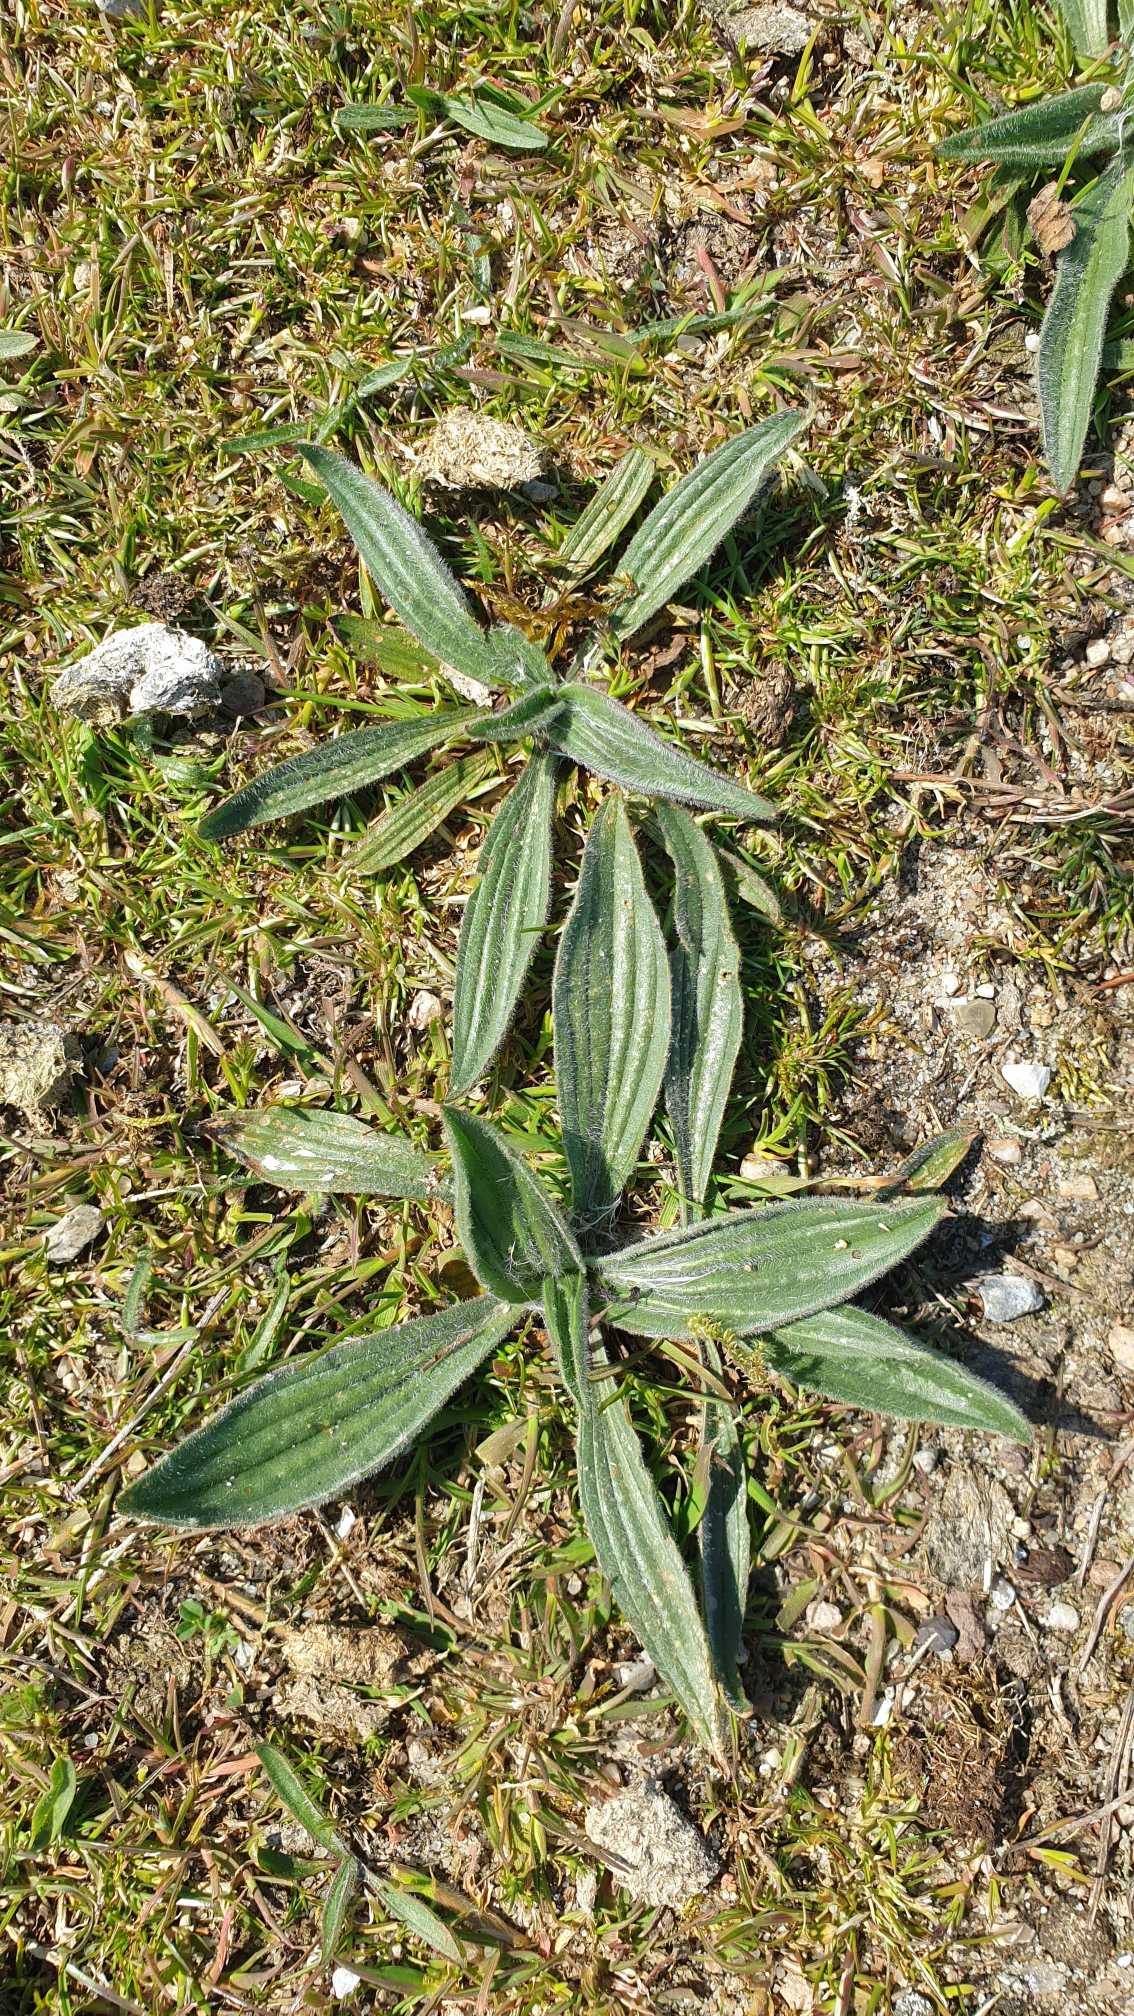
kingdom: Plantae
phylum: Tracheophyta
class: Magnoliopsida
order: Lamiales
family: Plantaginaceae
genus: Plantago
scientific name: Plantago lanceolata
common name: Lancet-vejbred
